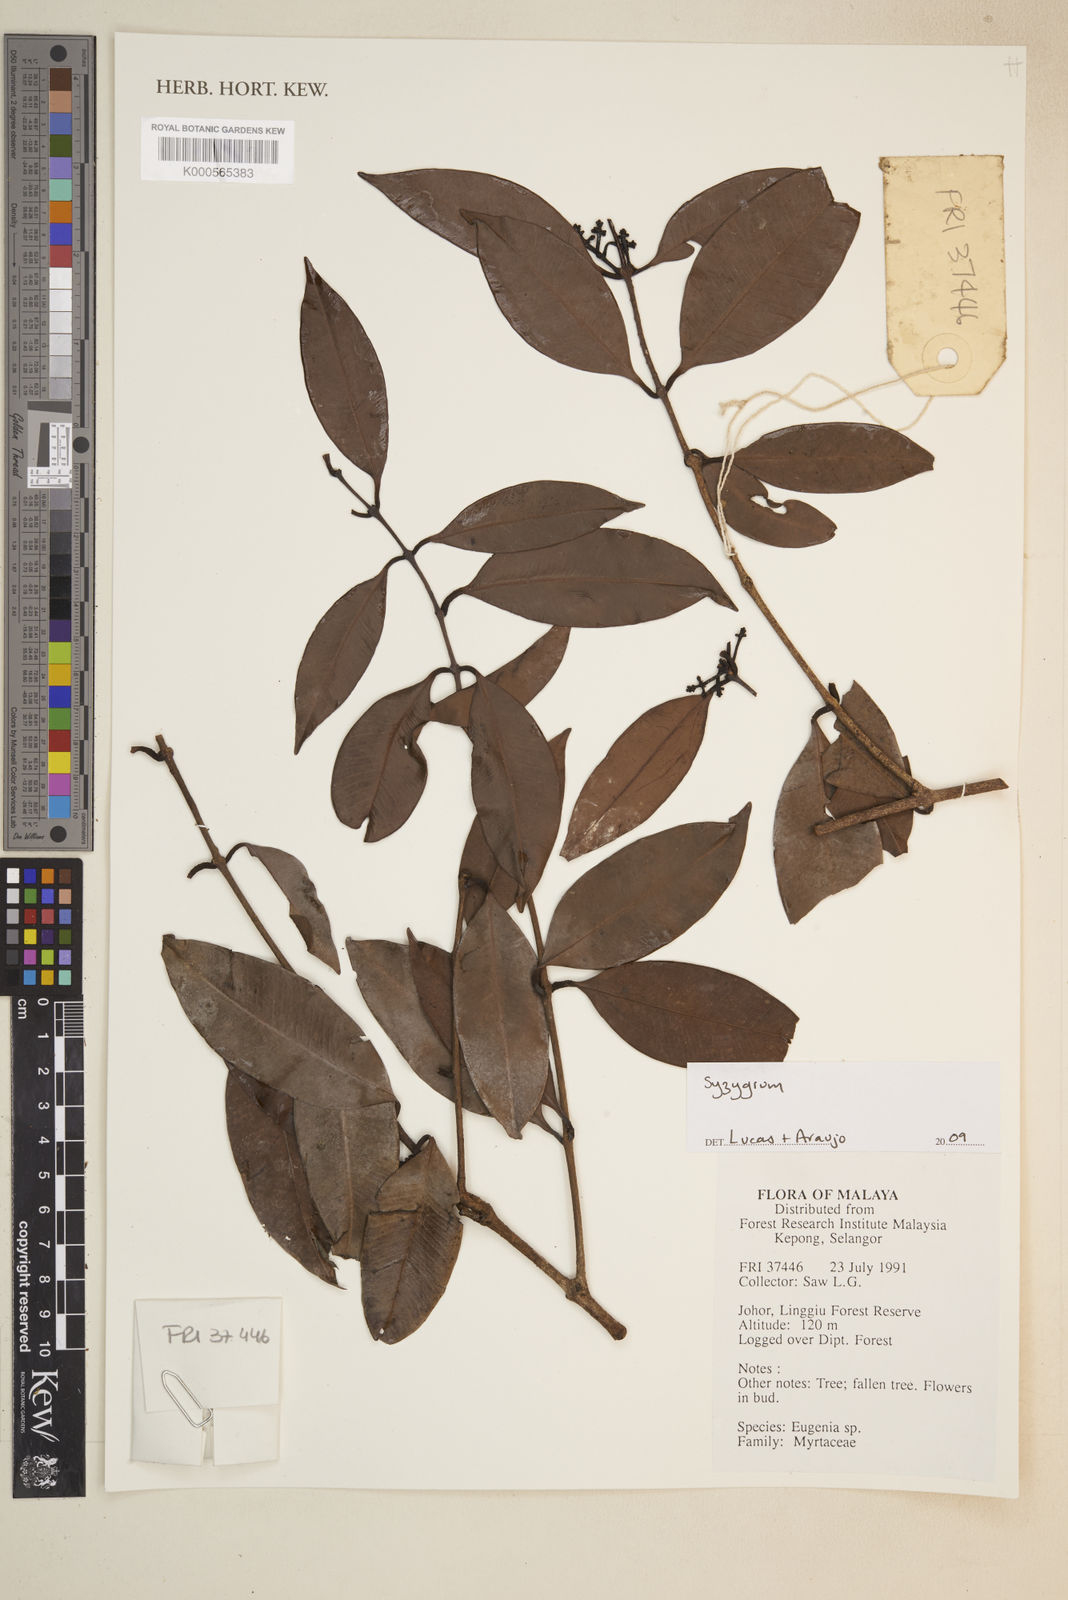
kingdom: Plantae
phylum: Tracheophyta
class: Magnoliopsida
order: Myrtales
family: Myrtaceae
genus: Syzygium
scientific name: Syzygium
